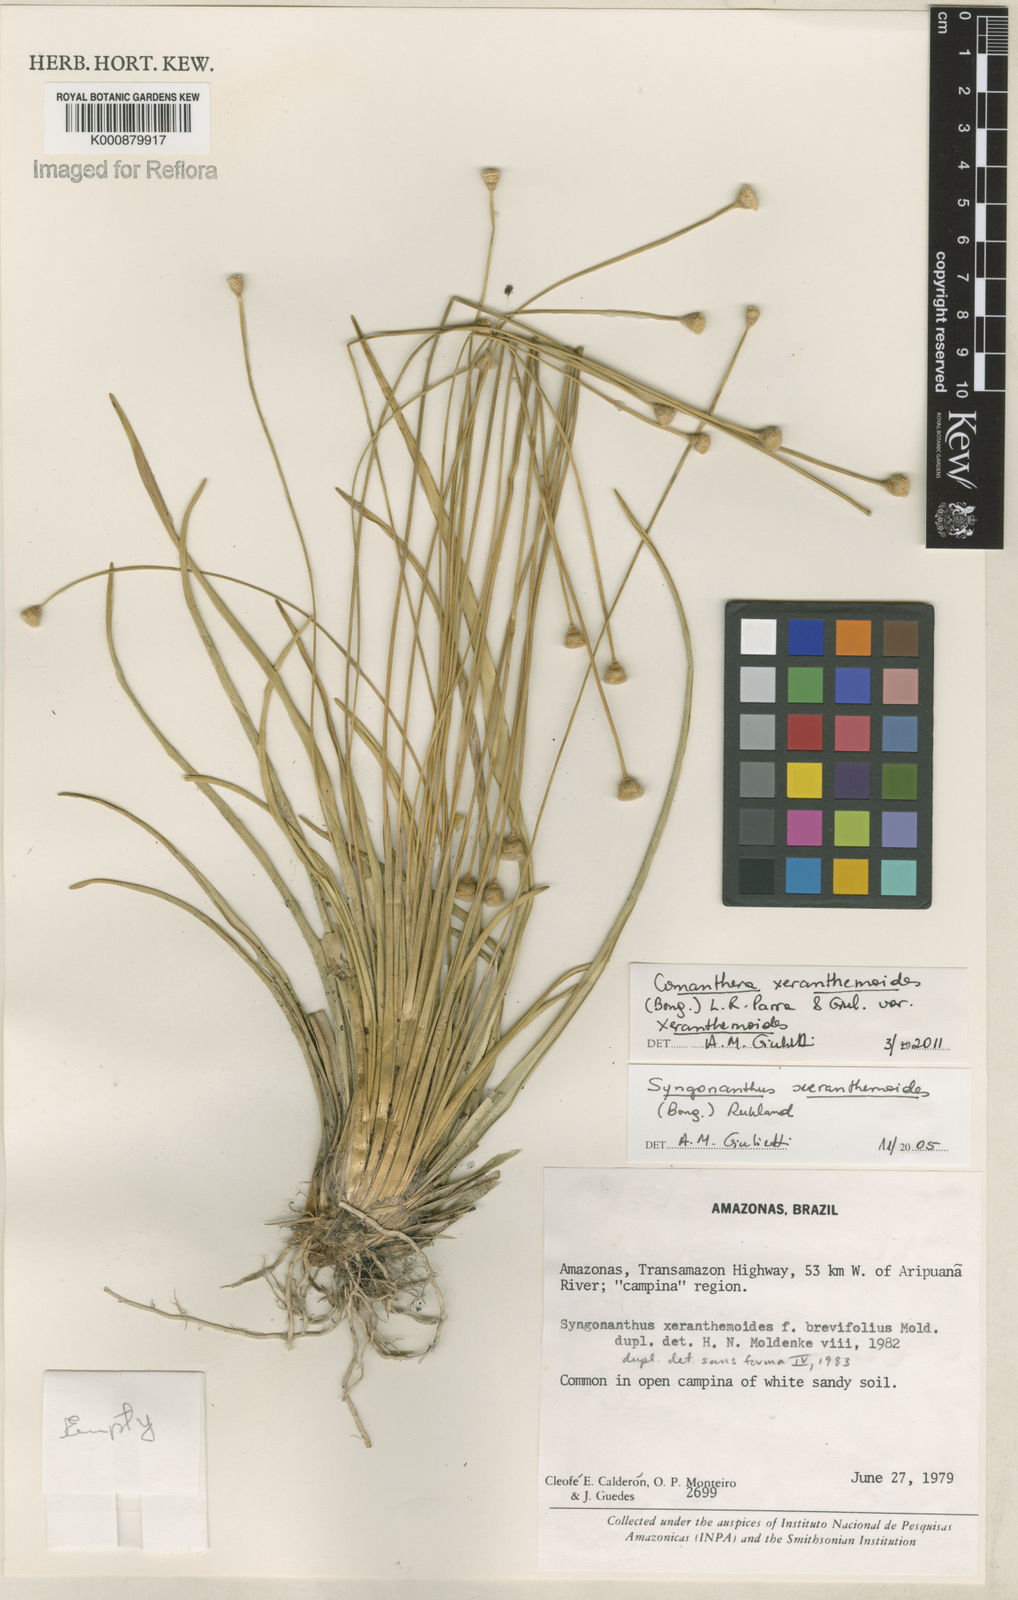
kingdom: Plantae
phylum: Tracheophyta
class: Liliopsida
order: Poales
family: Eriocaulaceae
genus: Comanthera
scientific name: Comanthera xeranthemoides
